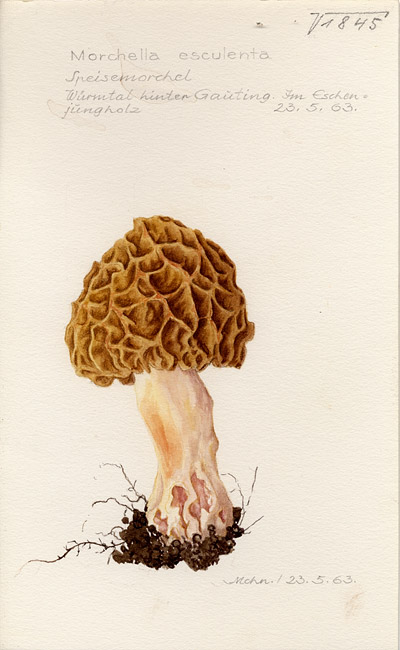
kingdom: Fungi
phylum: Ascomycota
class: Pezizomycetes
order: Pezizales
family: Morchellaceae
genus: Morchella
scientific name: Morchella esculenta
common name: Morel
